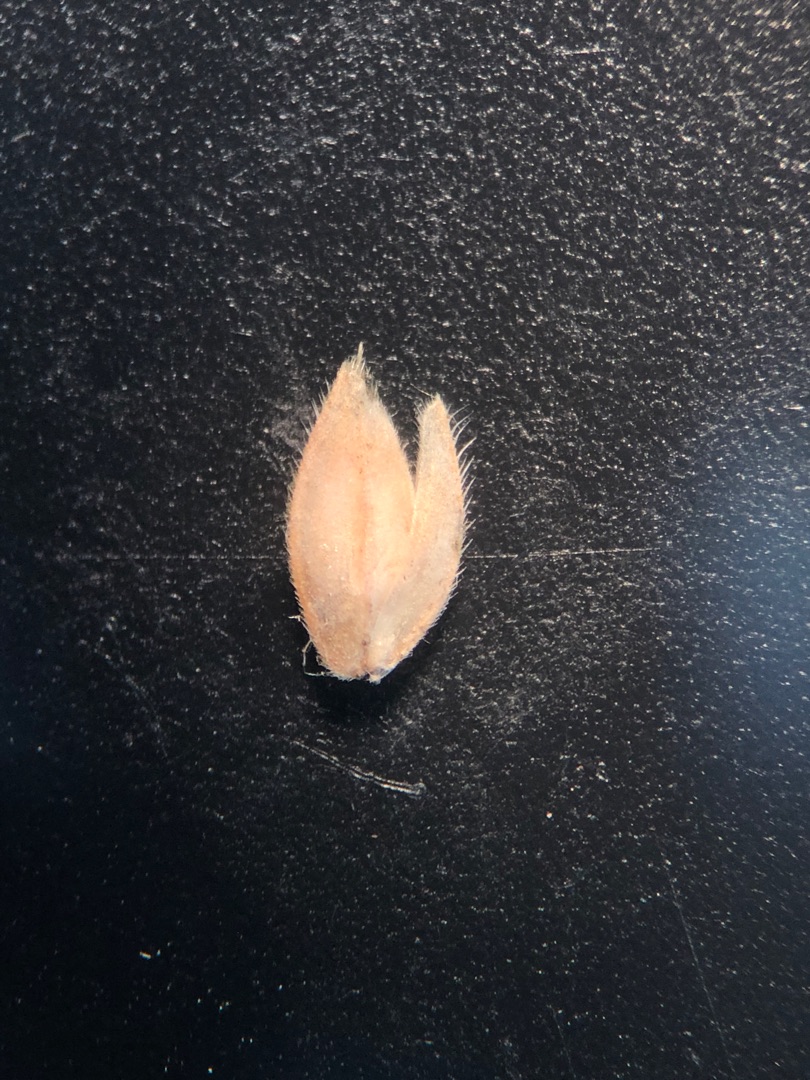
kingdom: Plantae
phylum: Tracheophyta
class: Liliopsida
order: Poales
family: Poaceae
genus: Holcus
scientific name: Holcus lanatus
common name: Fløjlsgræs
